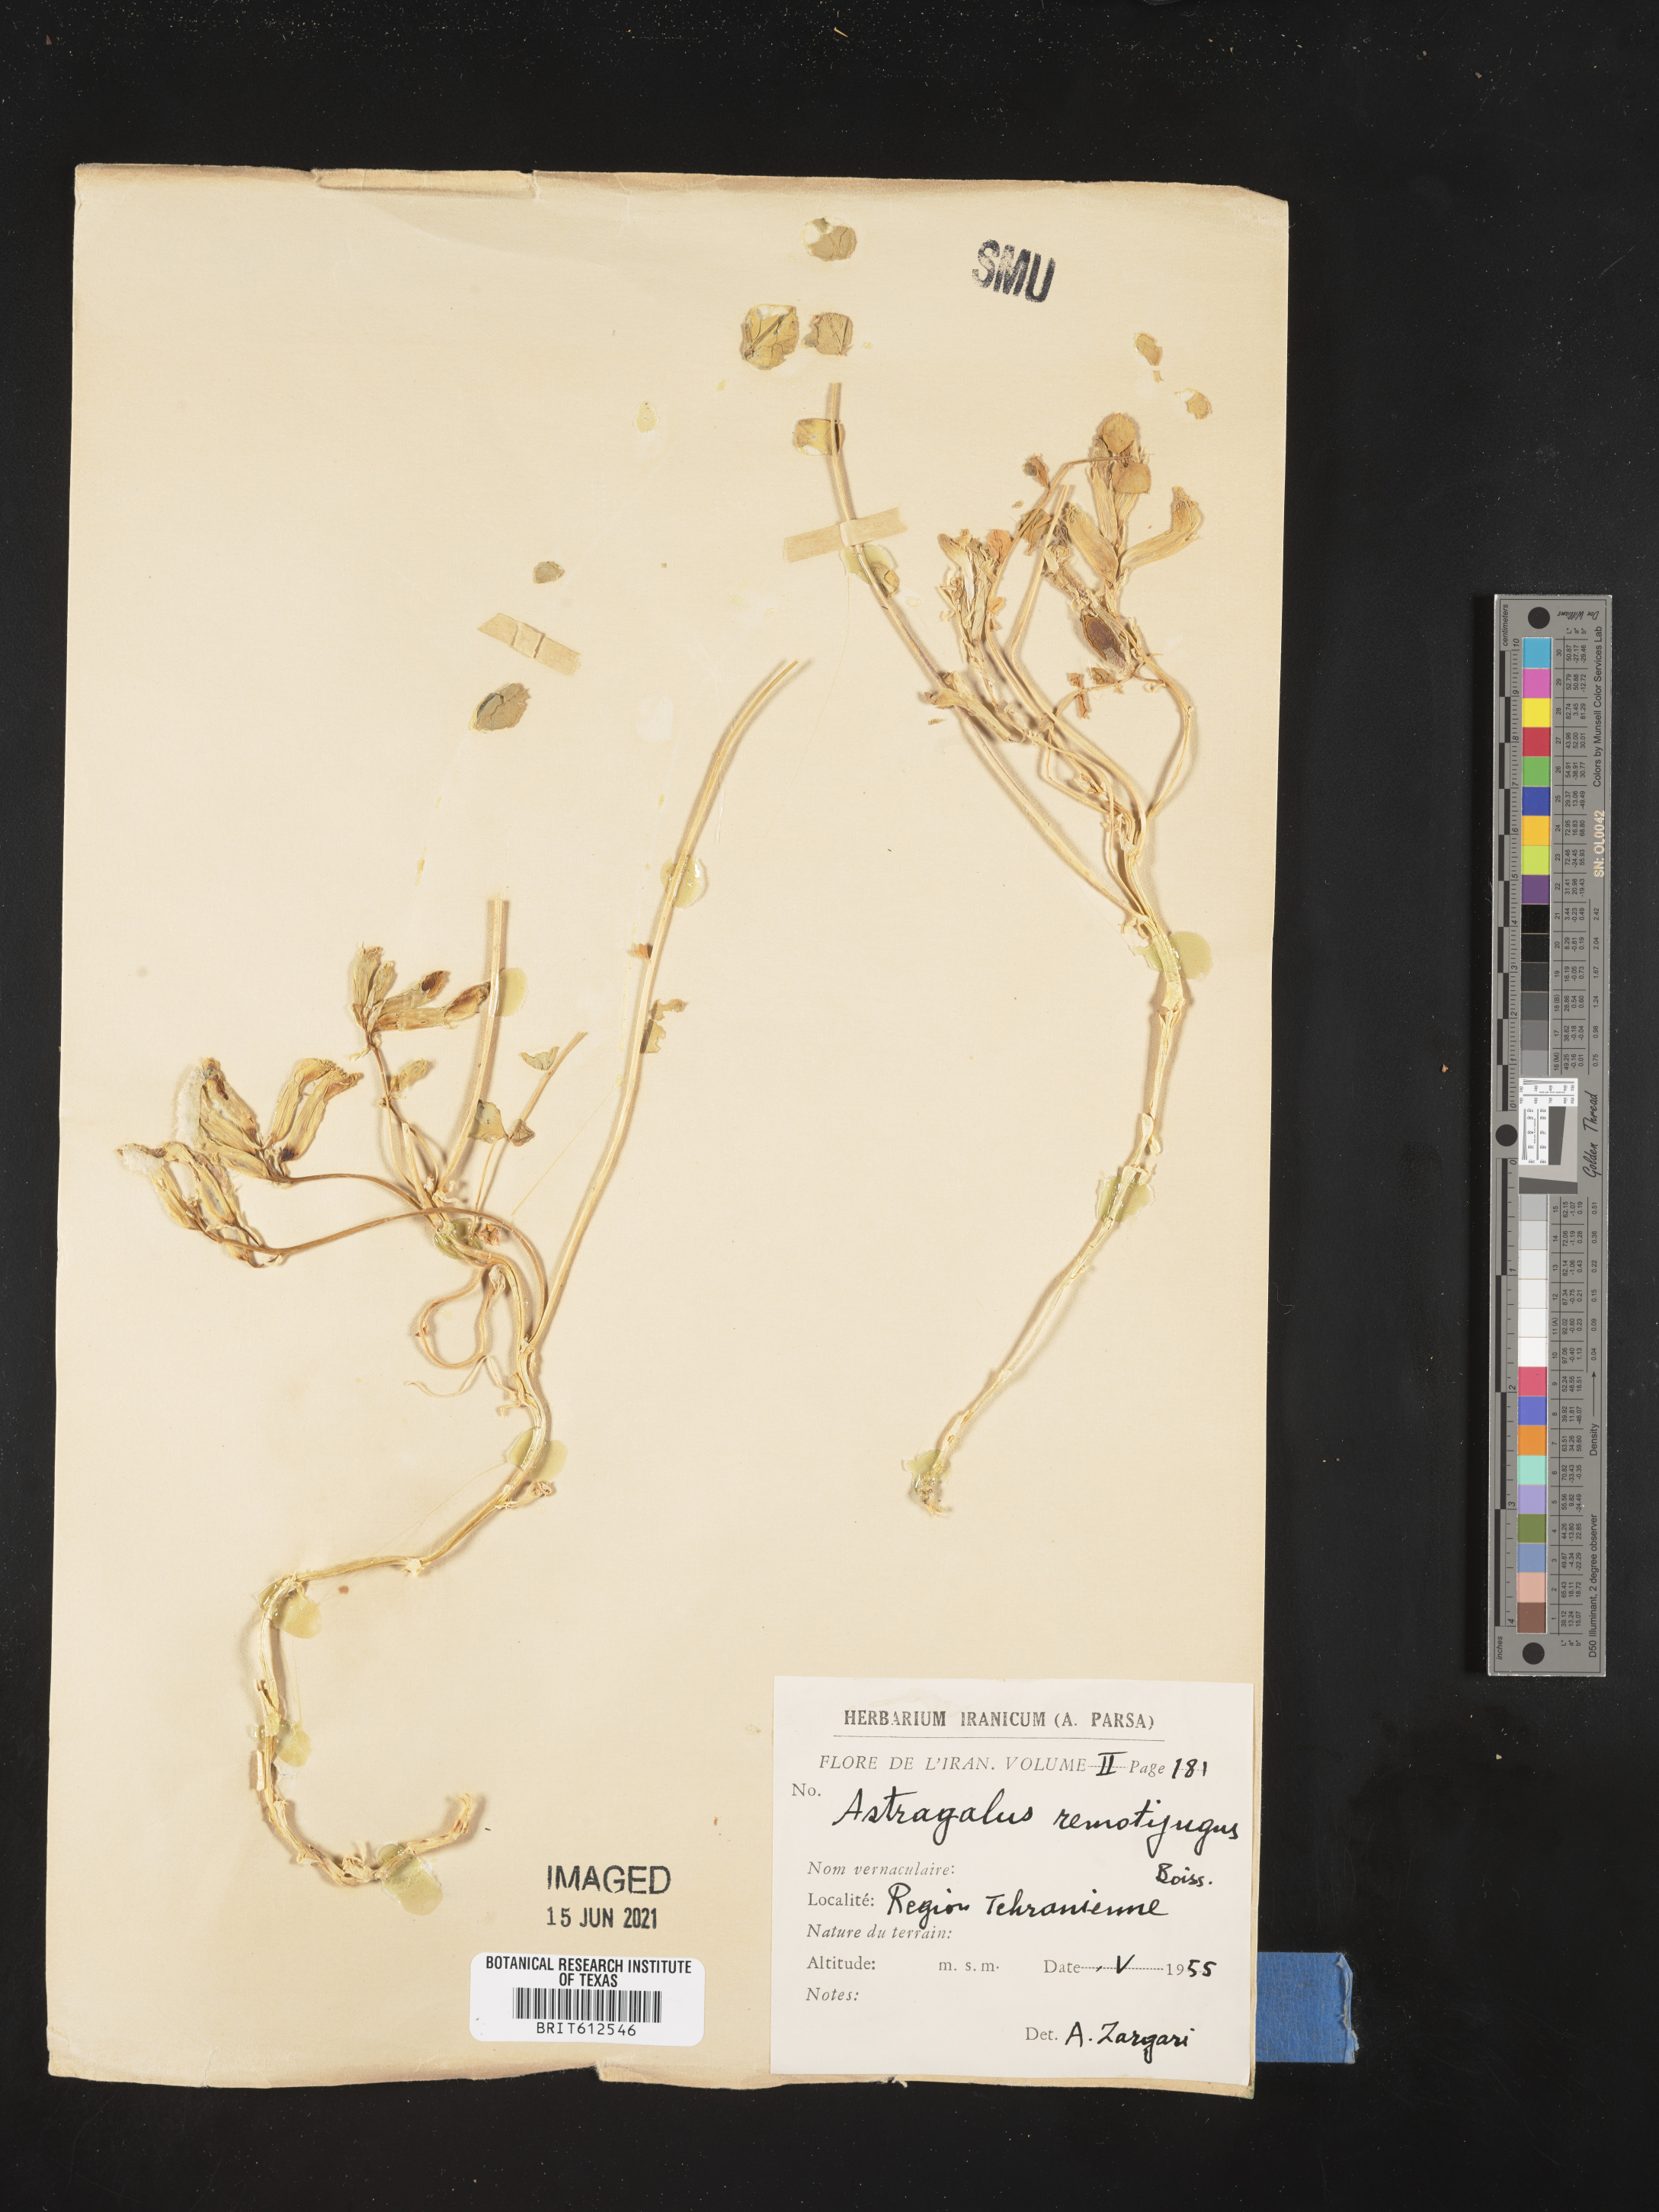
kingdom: Plantae
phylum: Tracheophyta
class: Magnoliopsida
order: Fabales
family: Fabaceae
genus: Astragalus
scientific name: Astragalus remotijugus
